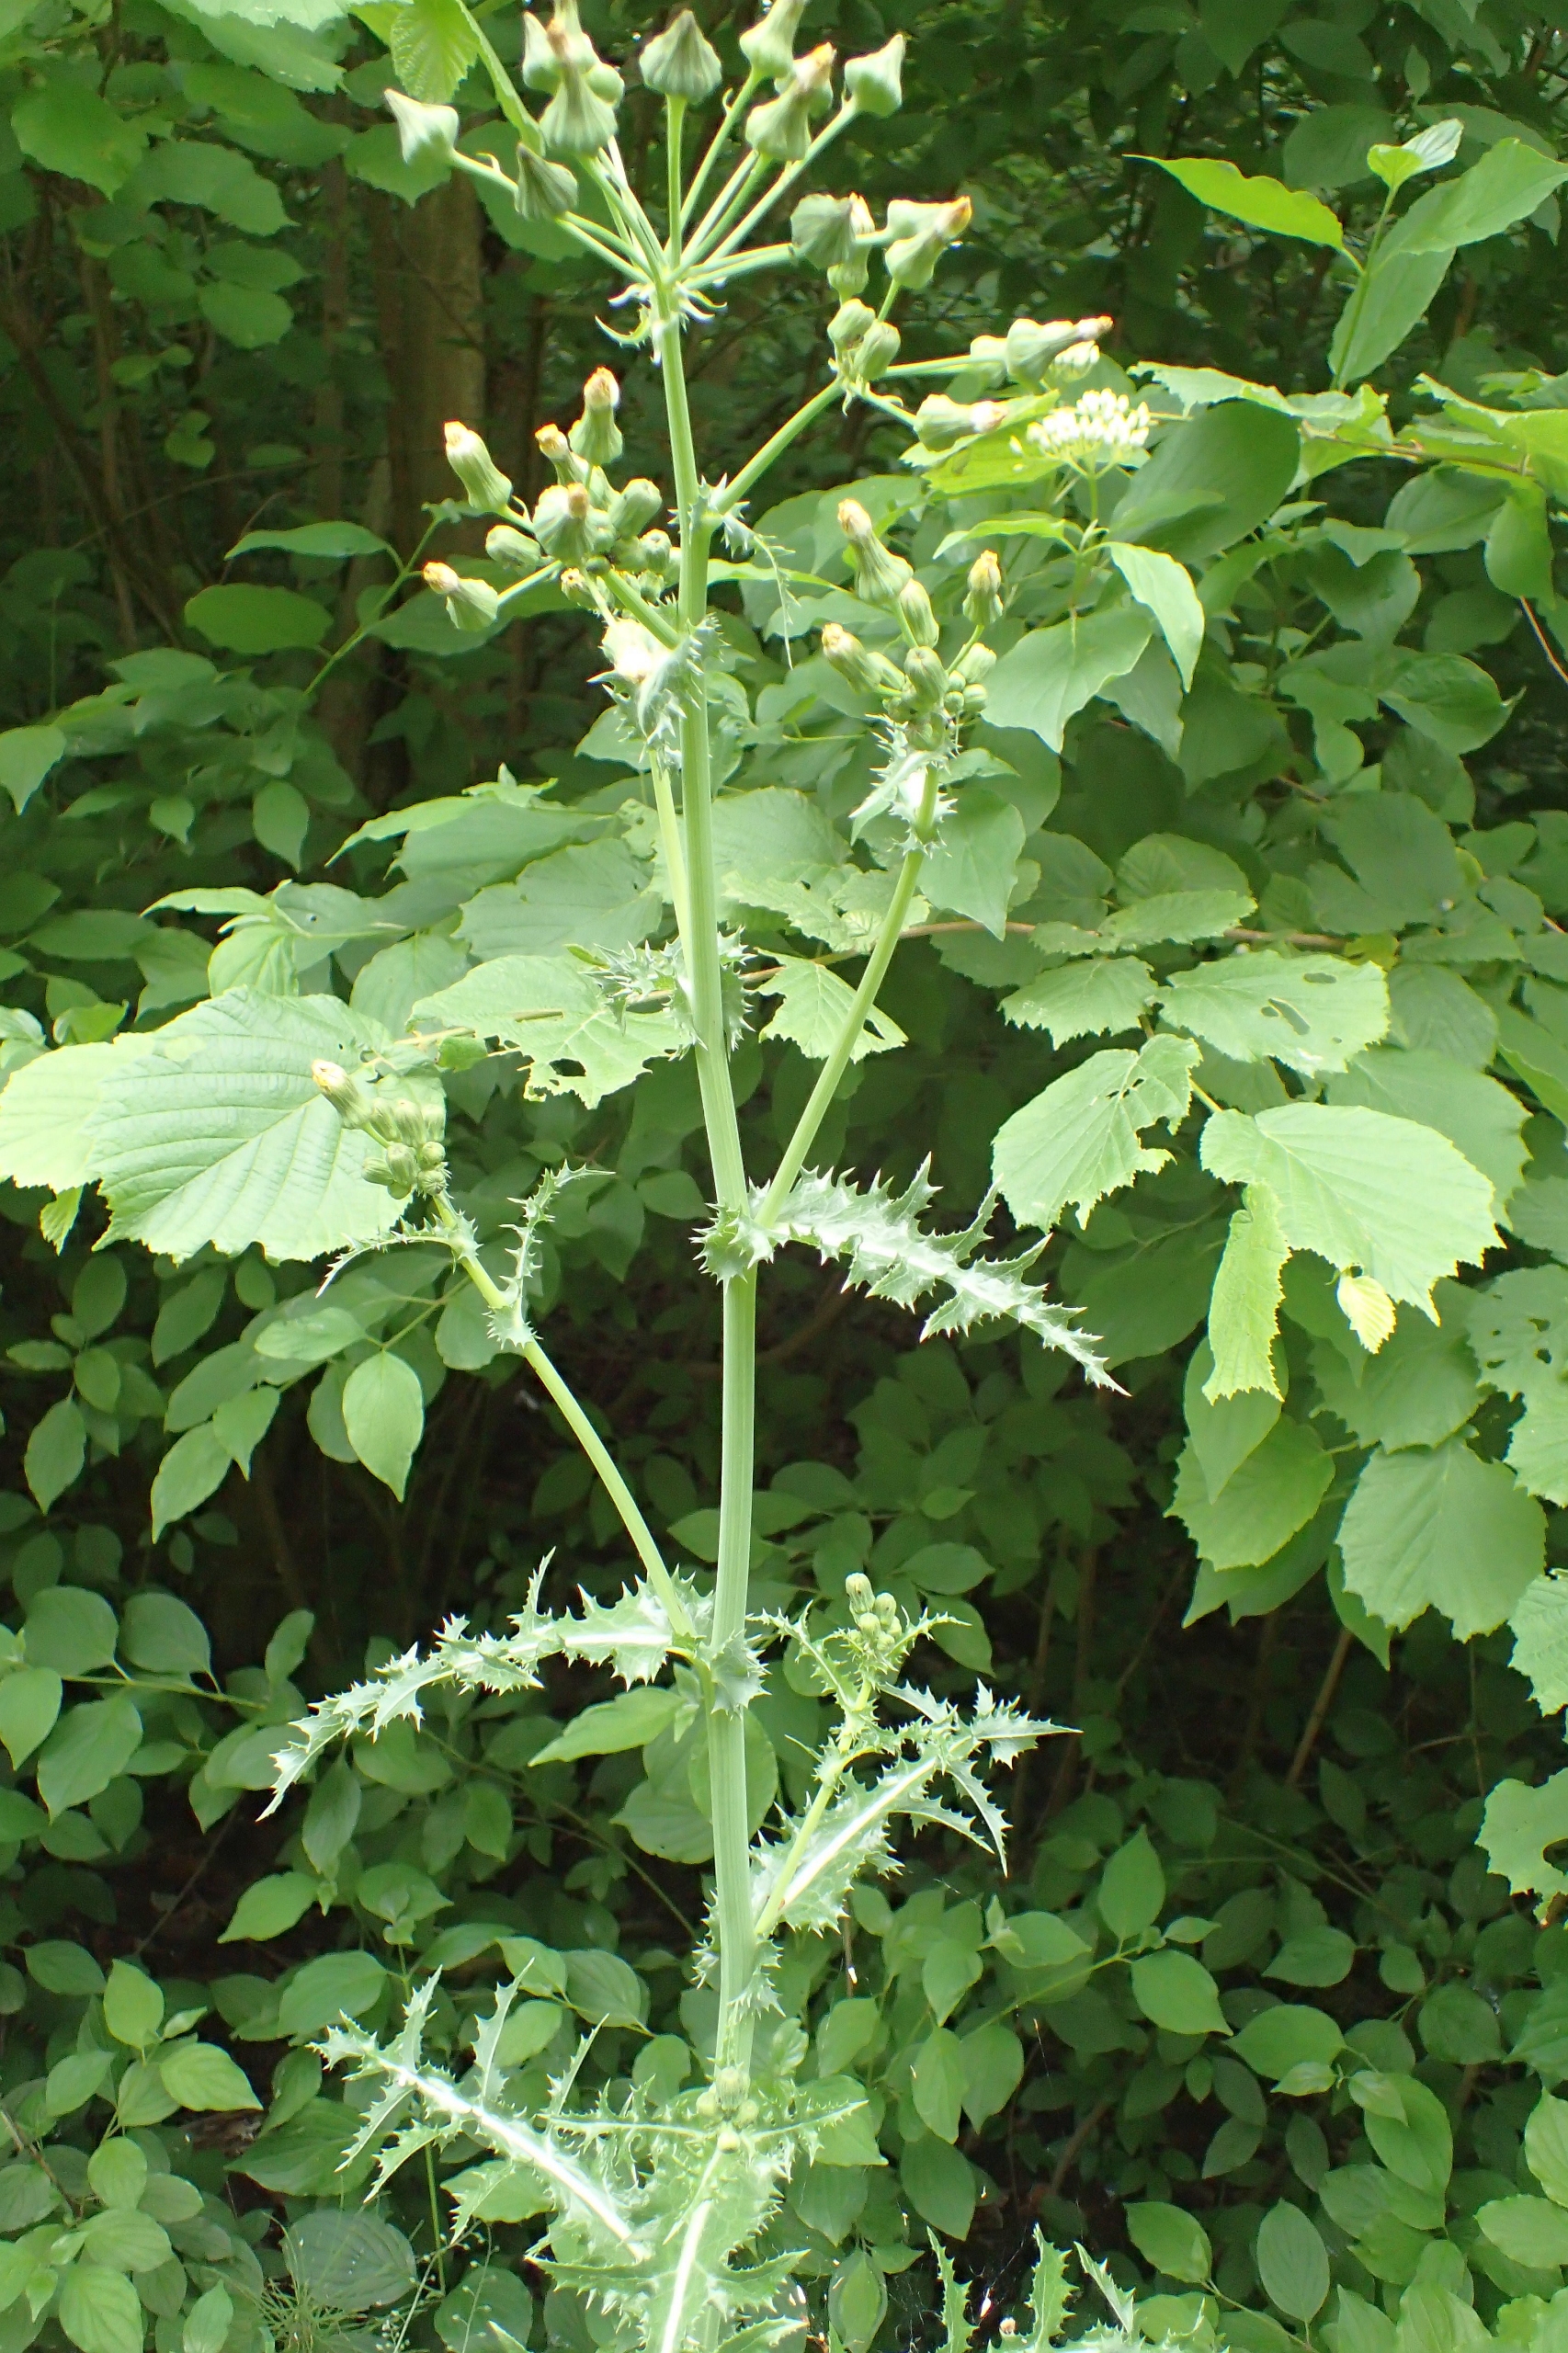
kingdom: Plantae
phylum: Tracheophyta
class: Magnoliopsida
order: Asterales
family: Asteraceae
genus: Sonchus
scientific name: Sonchus asper
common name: Ru svinemælk
